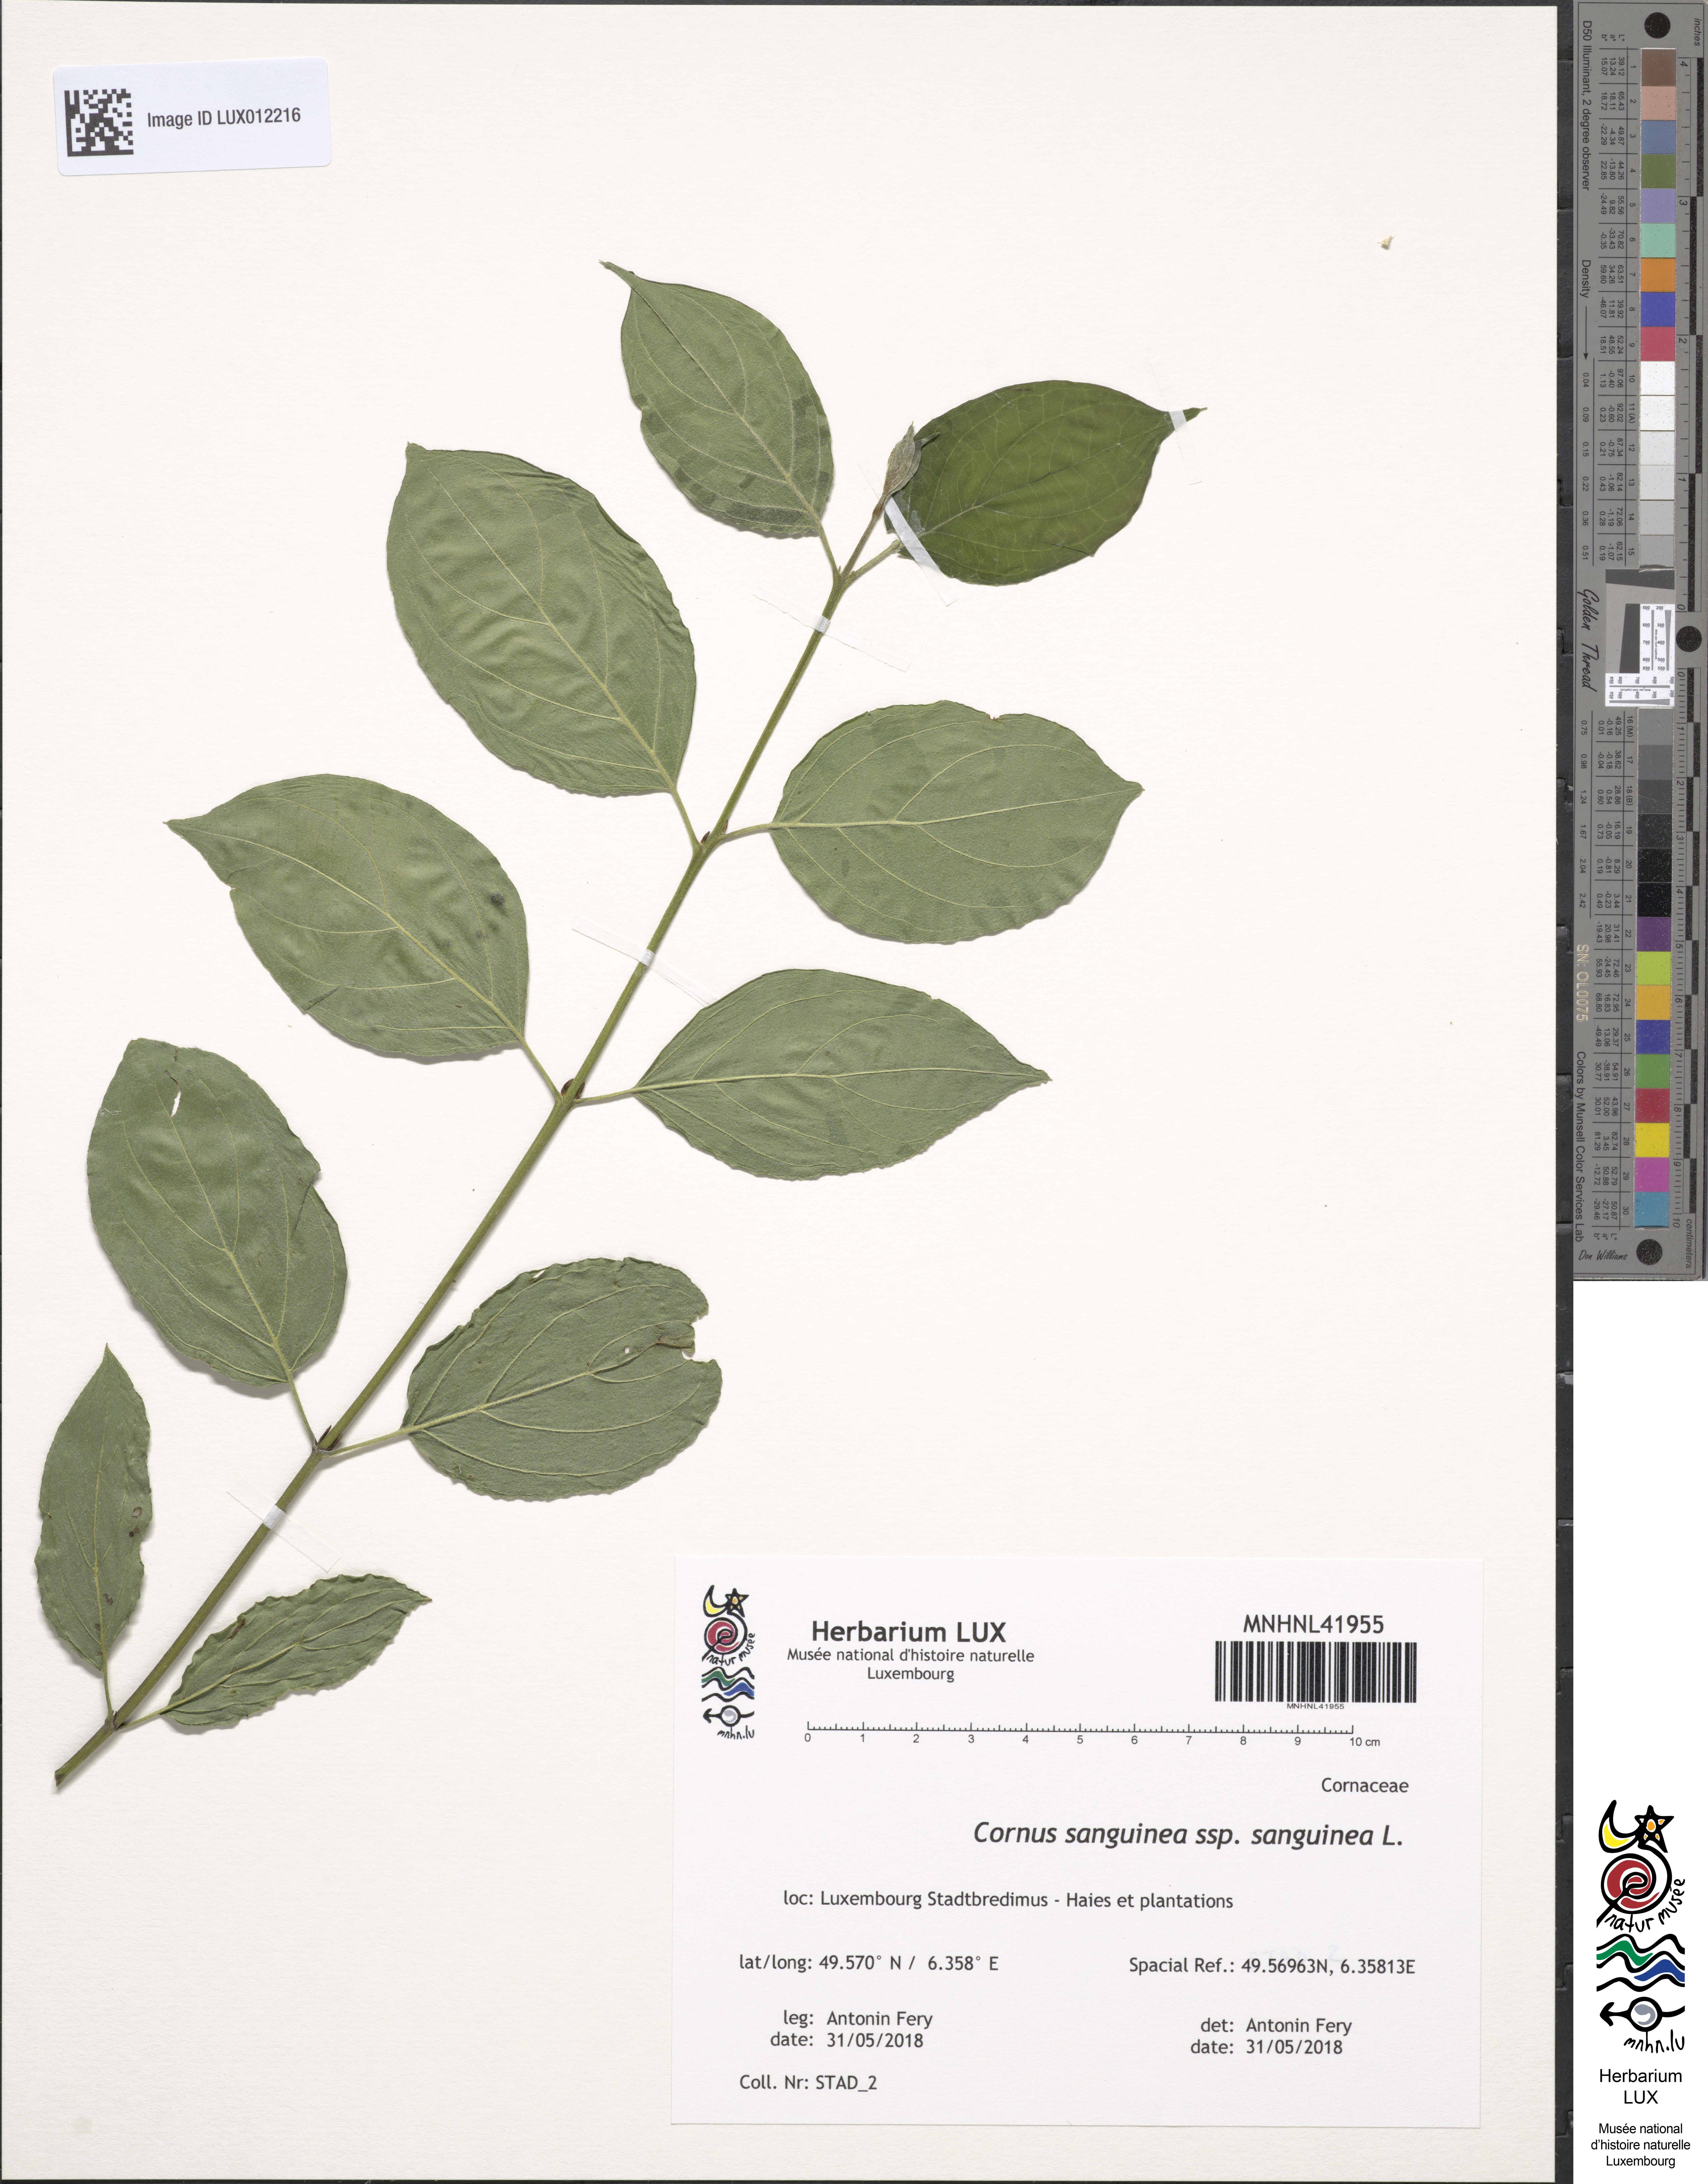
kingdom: Plantae
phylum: Tracheophyta
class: Magnoliopsida
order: Cornales
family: Cornaceae
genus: Cornus
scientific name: Cornus sanguinea
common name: Dogwood
